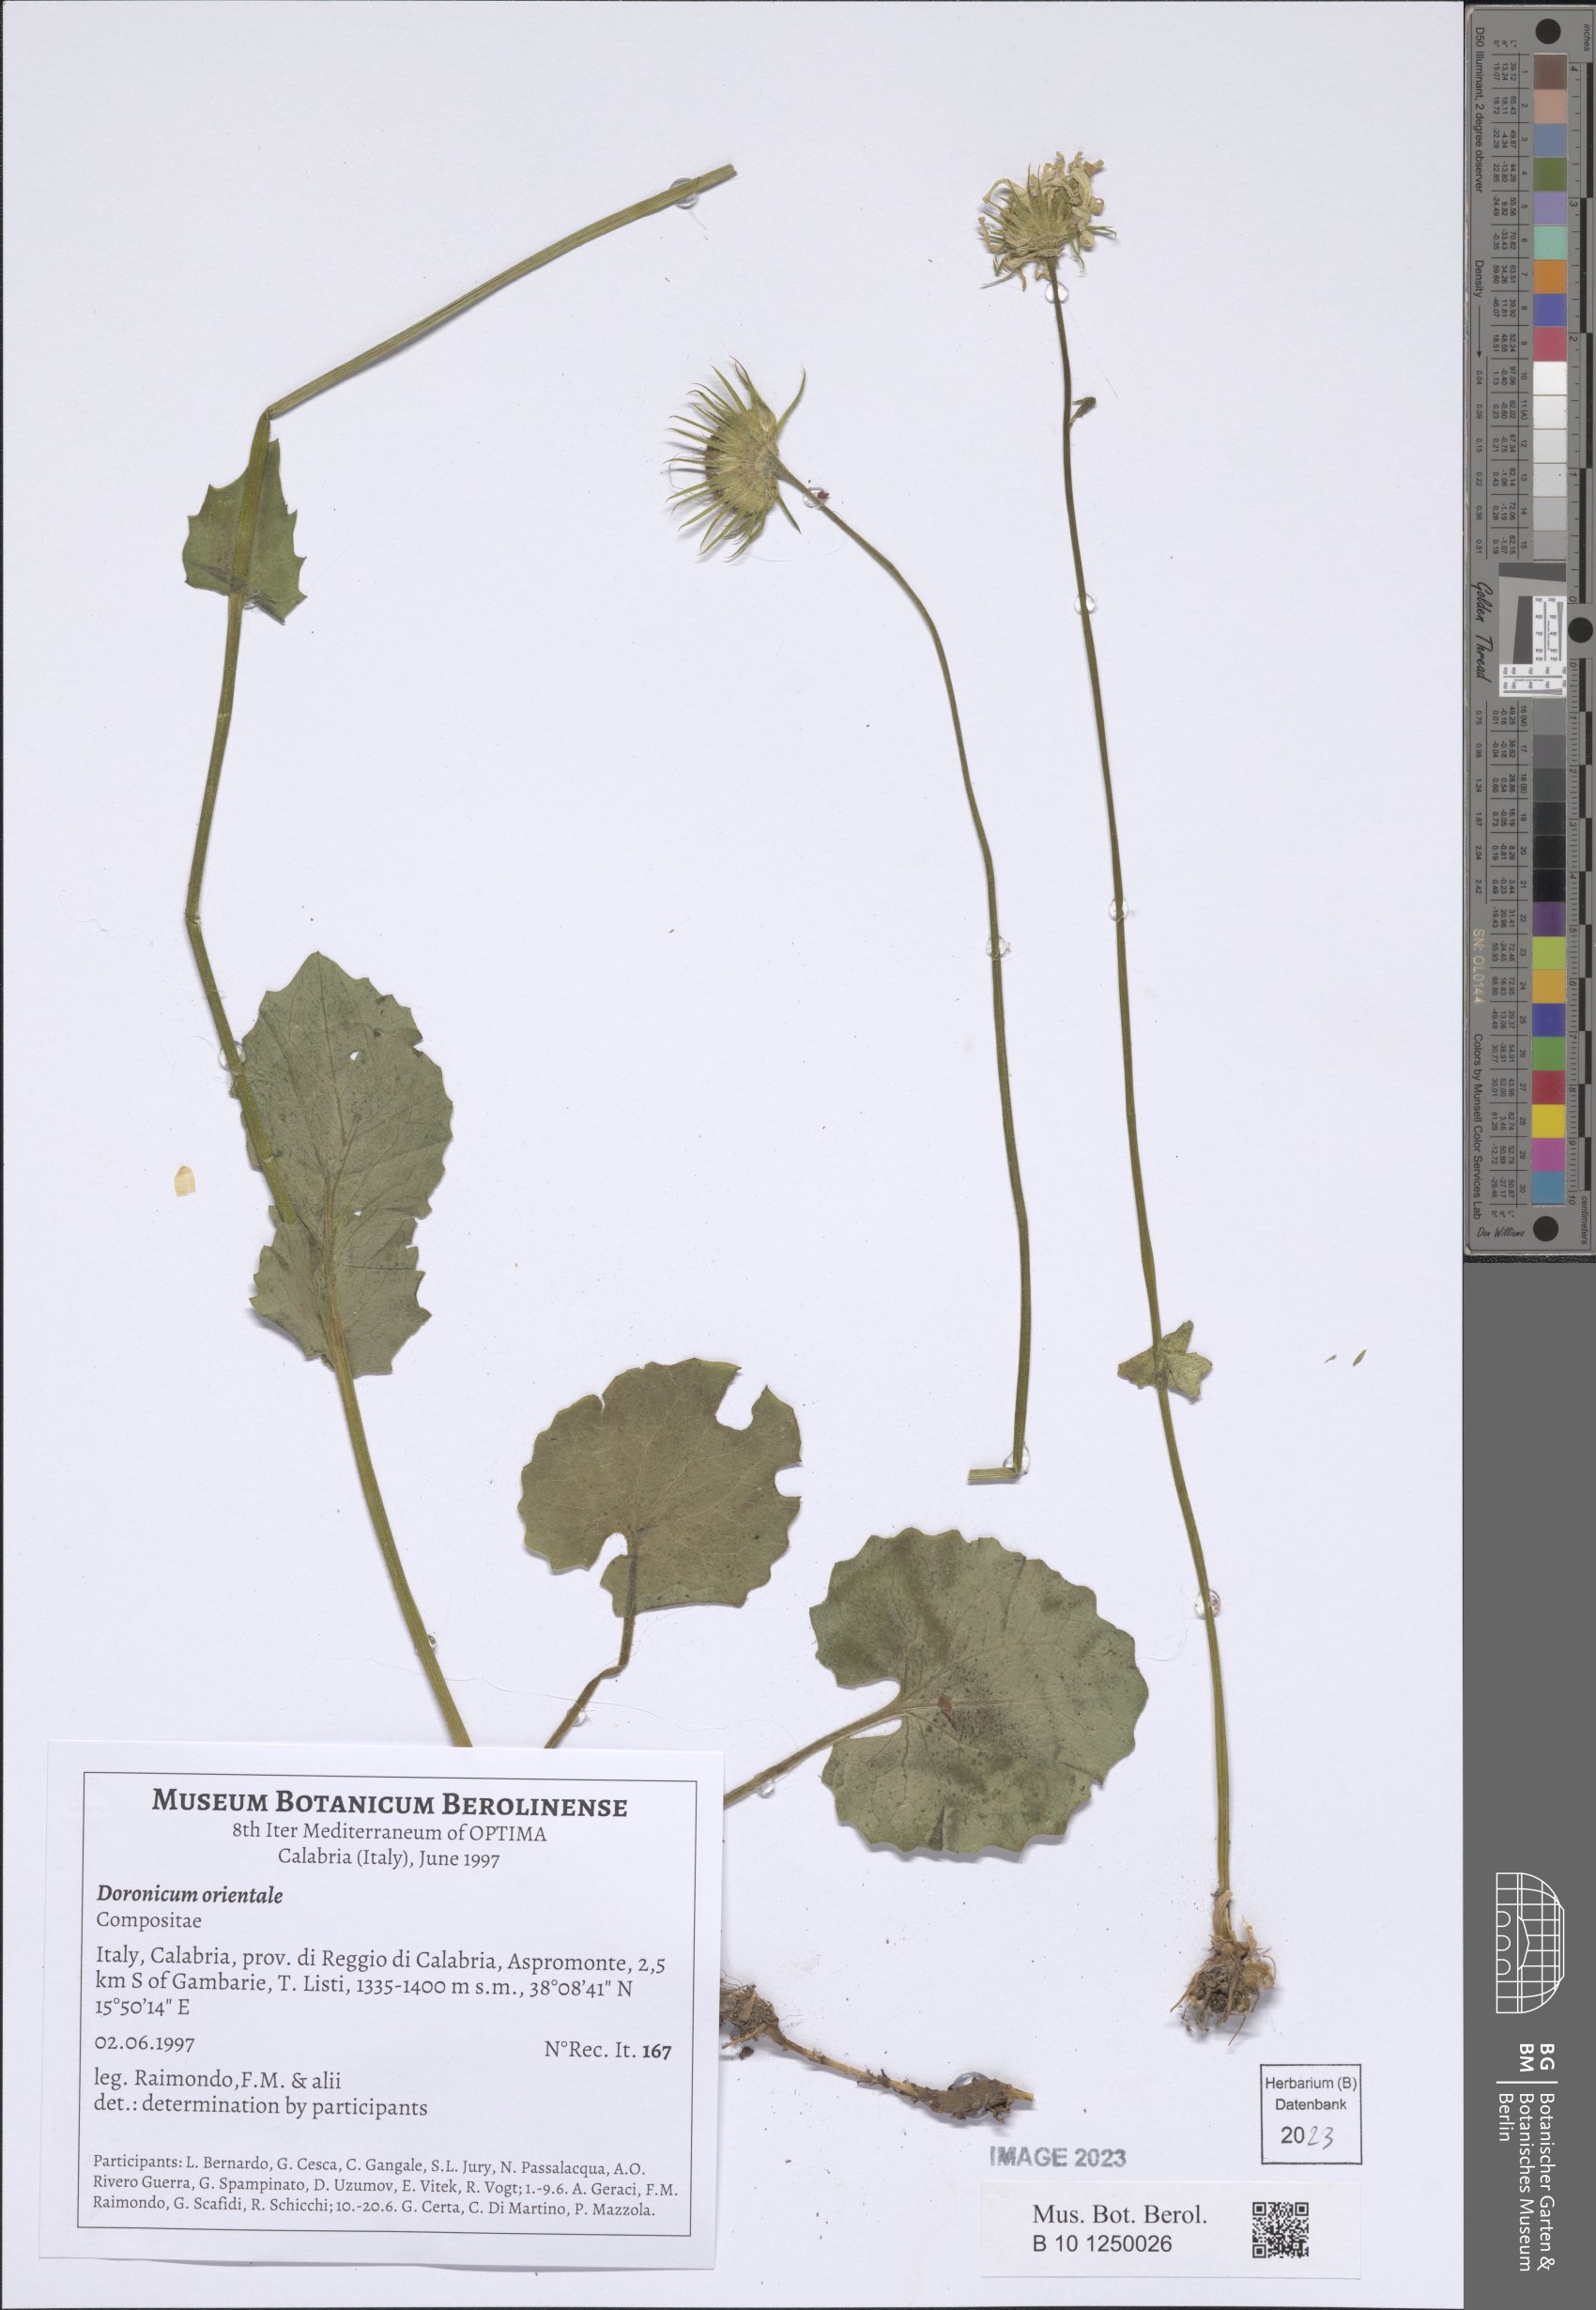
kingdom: Plantae
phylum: Tracheophyta
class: Magnoliopsida
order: Asterales
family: Asteraceae
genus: Doronicum
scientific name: Doronicum orientale
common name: Oriental leopard's-bane
